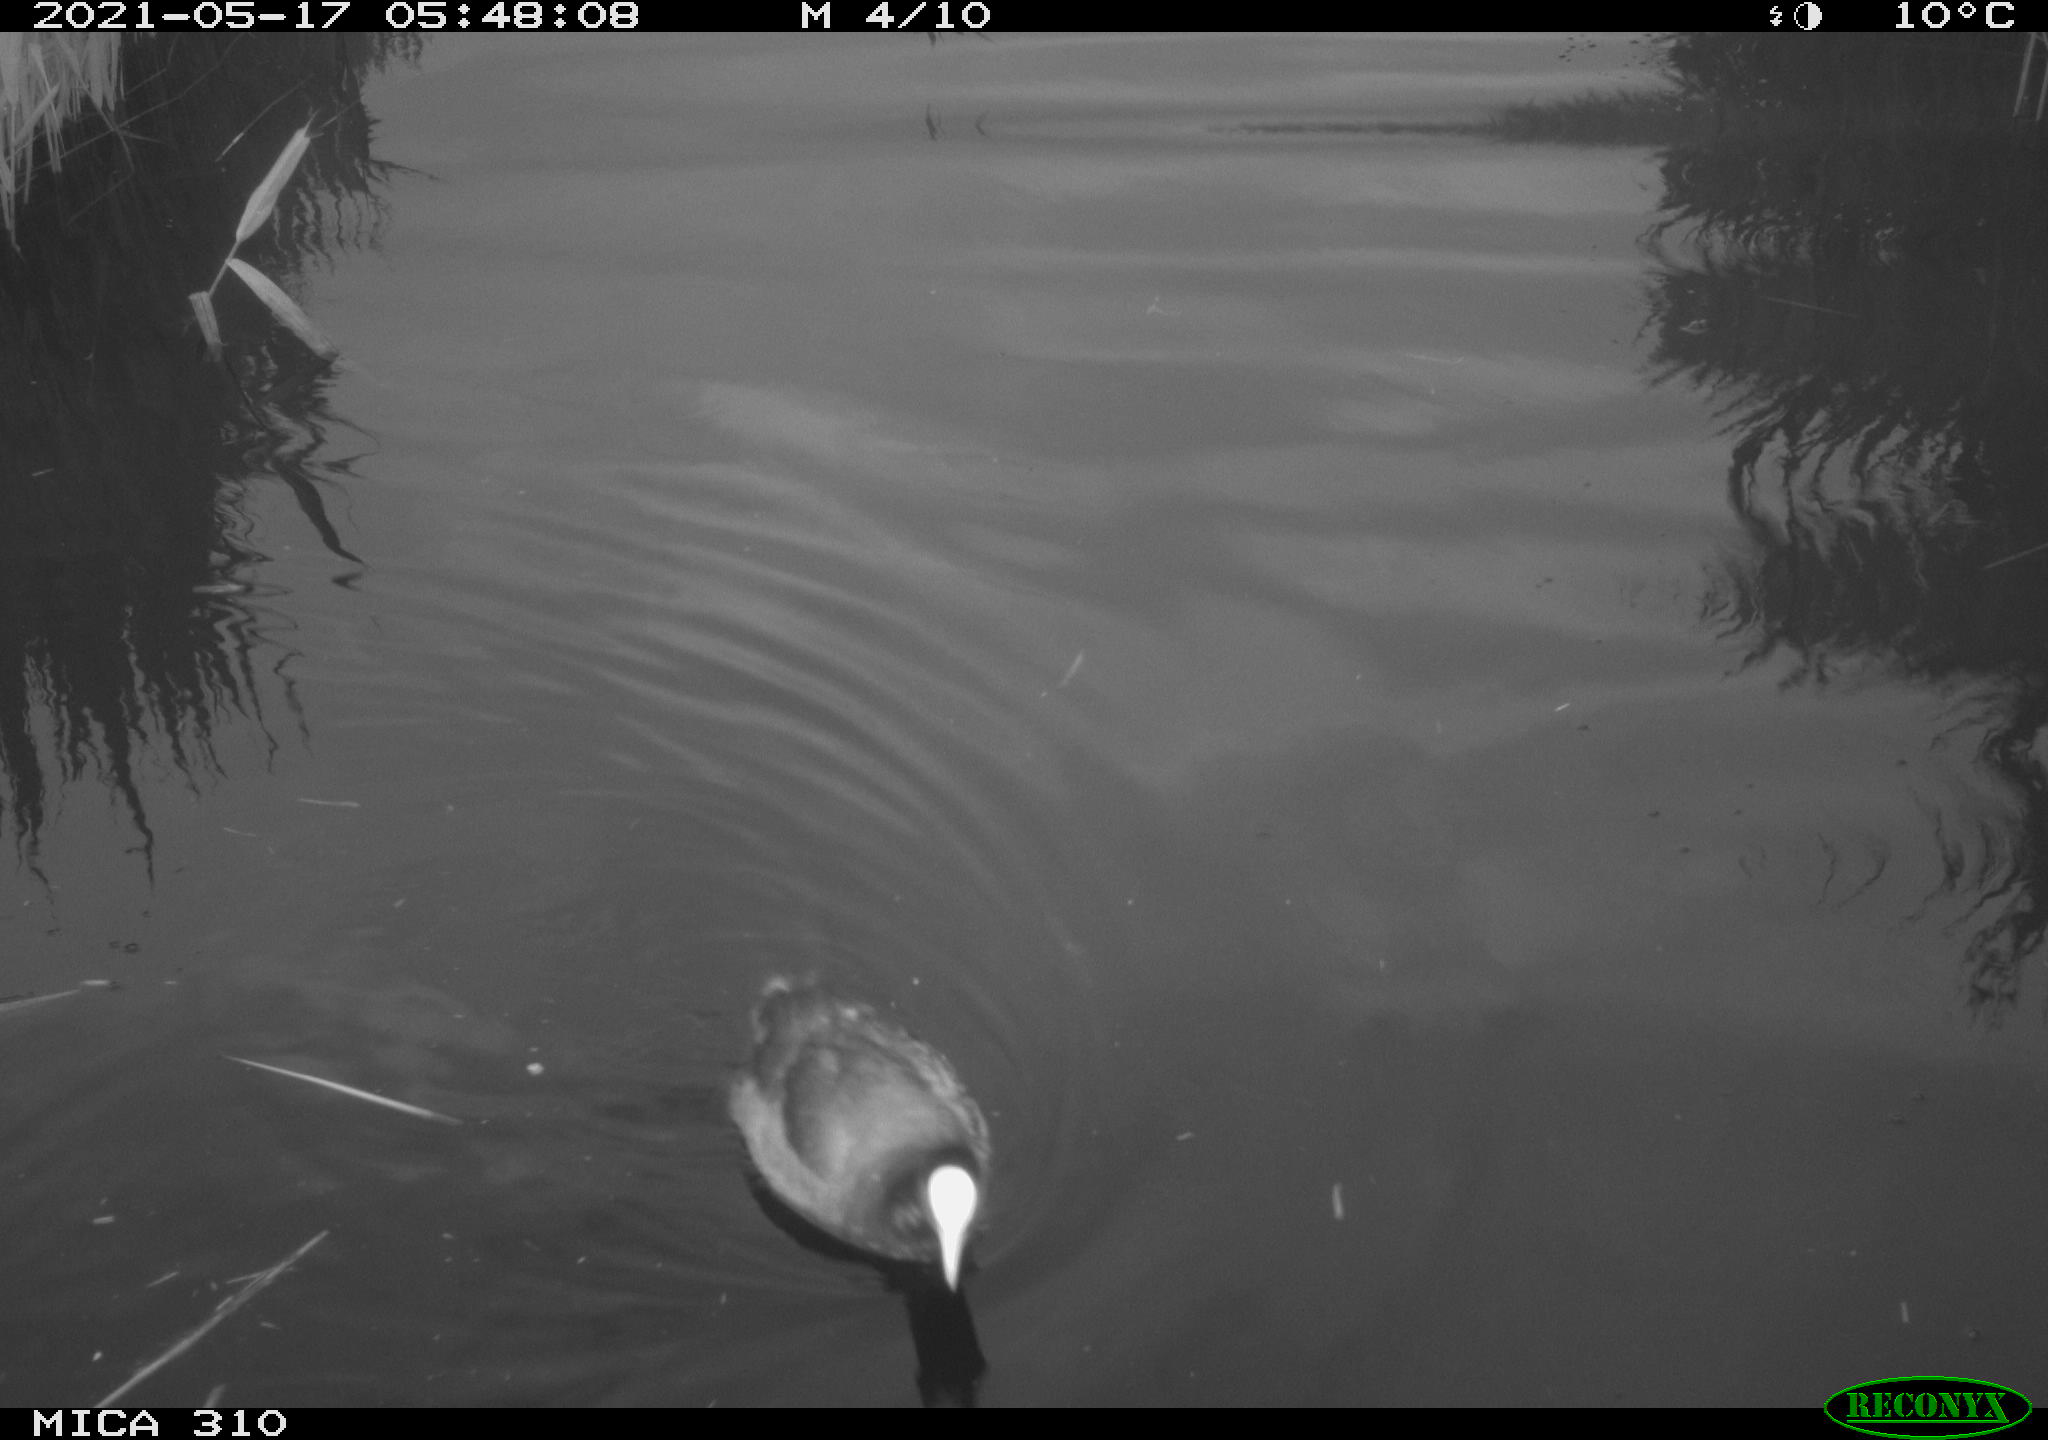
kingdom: Animalia
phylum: Chordata
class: Aves
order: Gruiformes
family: Rallidae
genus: Fulica
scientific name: Fulica atra
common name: Eurasian coot
